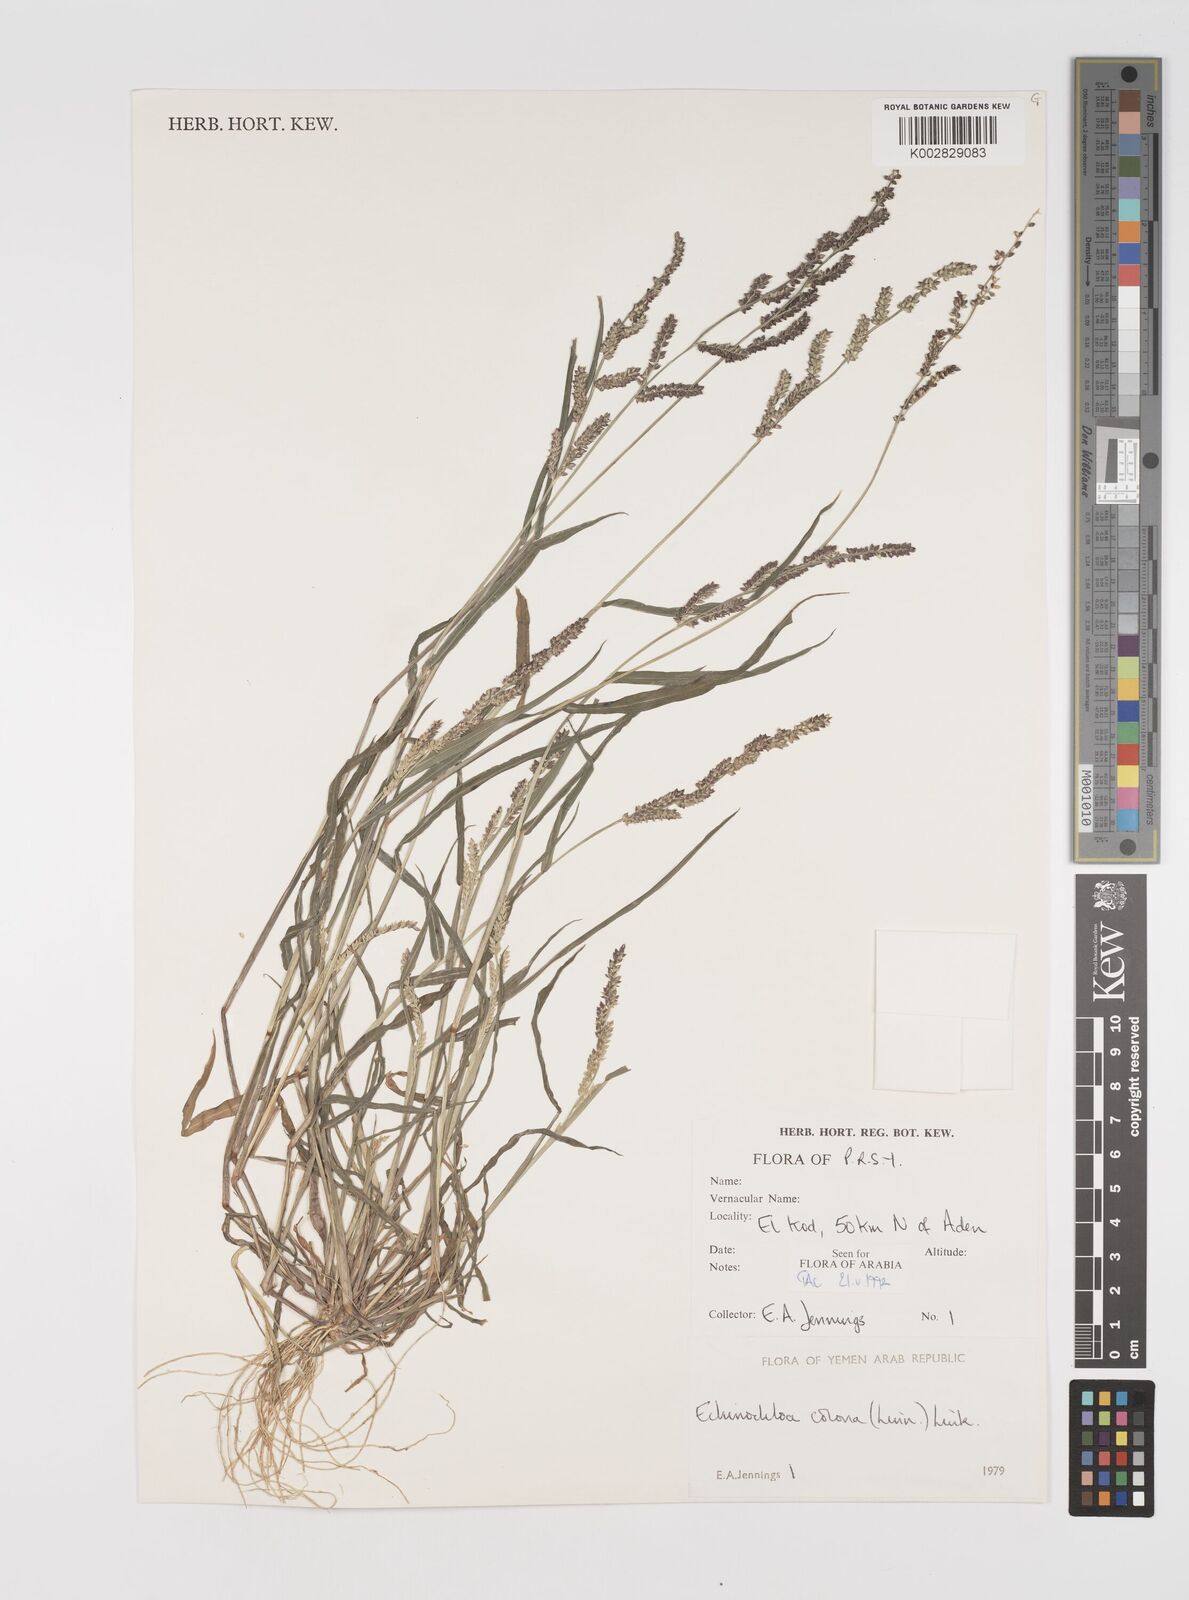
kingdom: Plantae
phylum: Tracheophyta
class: Liliopsida
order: Poales
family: Poaceae
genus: Echinochloa
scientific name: Echinochloa colonum
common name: Jungle rice
